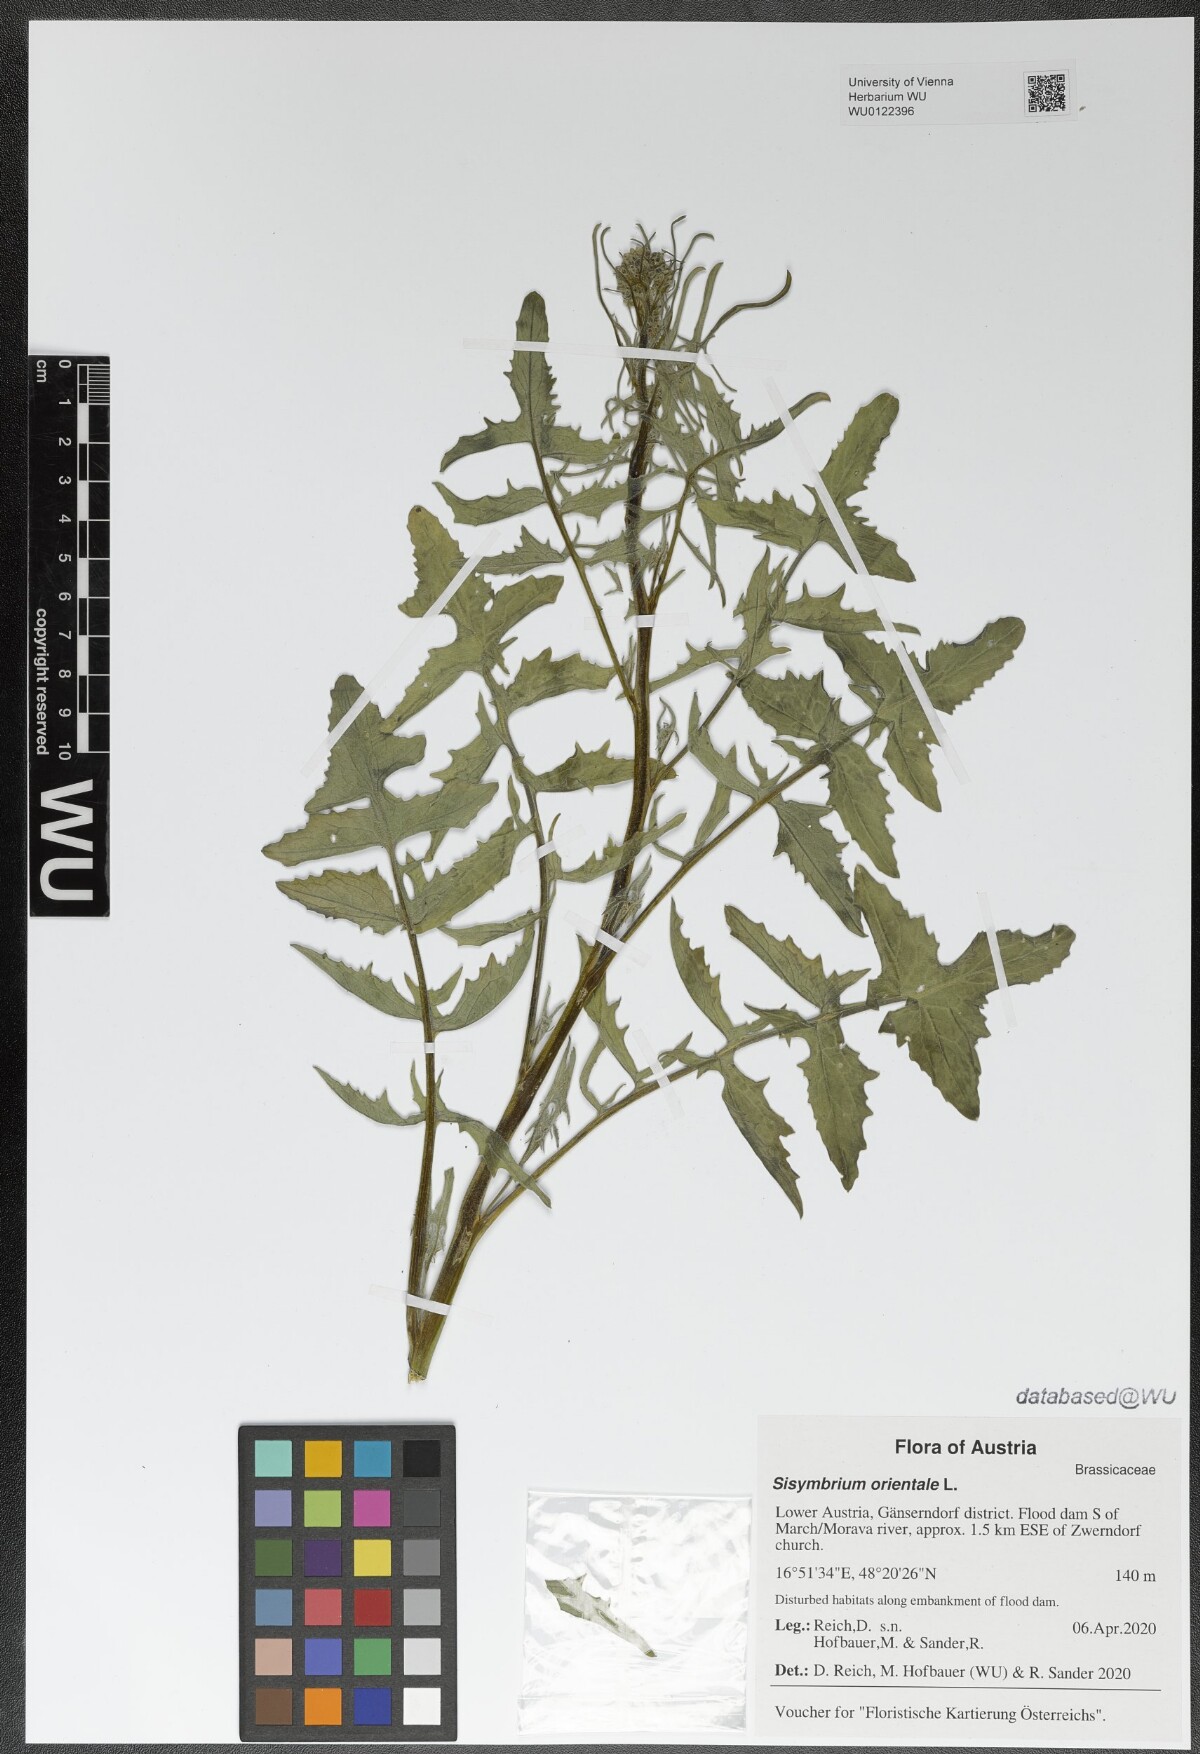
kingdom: Plantae
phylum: Tracheophyta
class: Magnoliopsida
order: Brassicales
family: Brassicaceae
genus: Sisymbrium
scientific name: Sisymbrium orientale
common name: Eastern rocket
